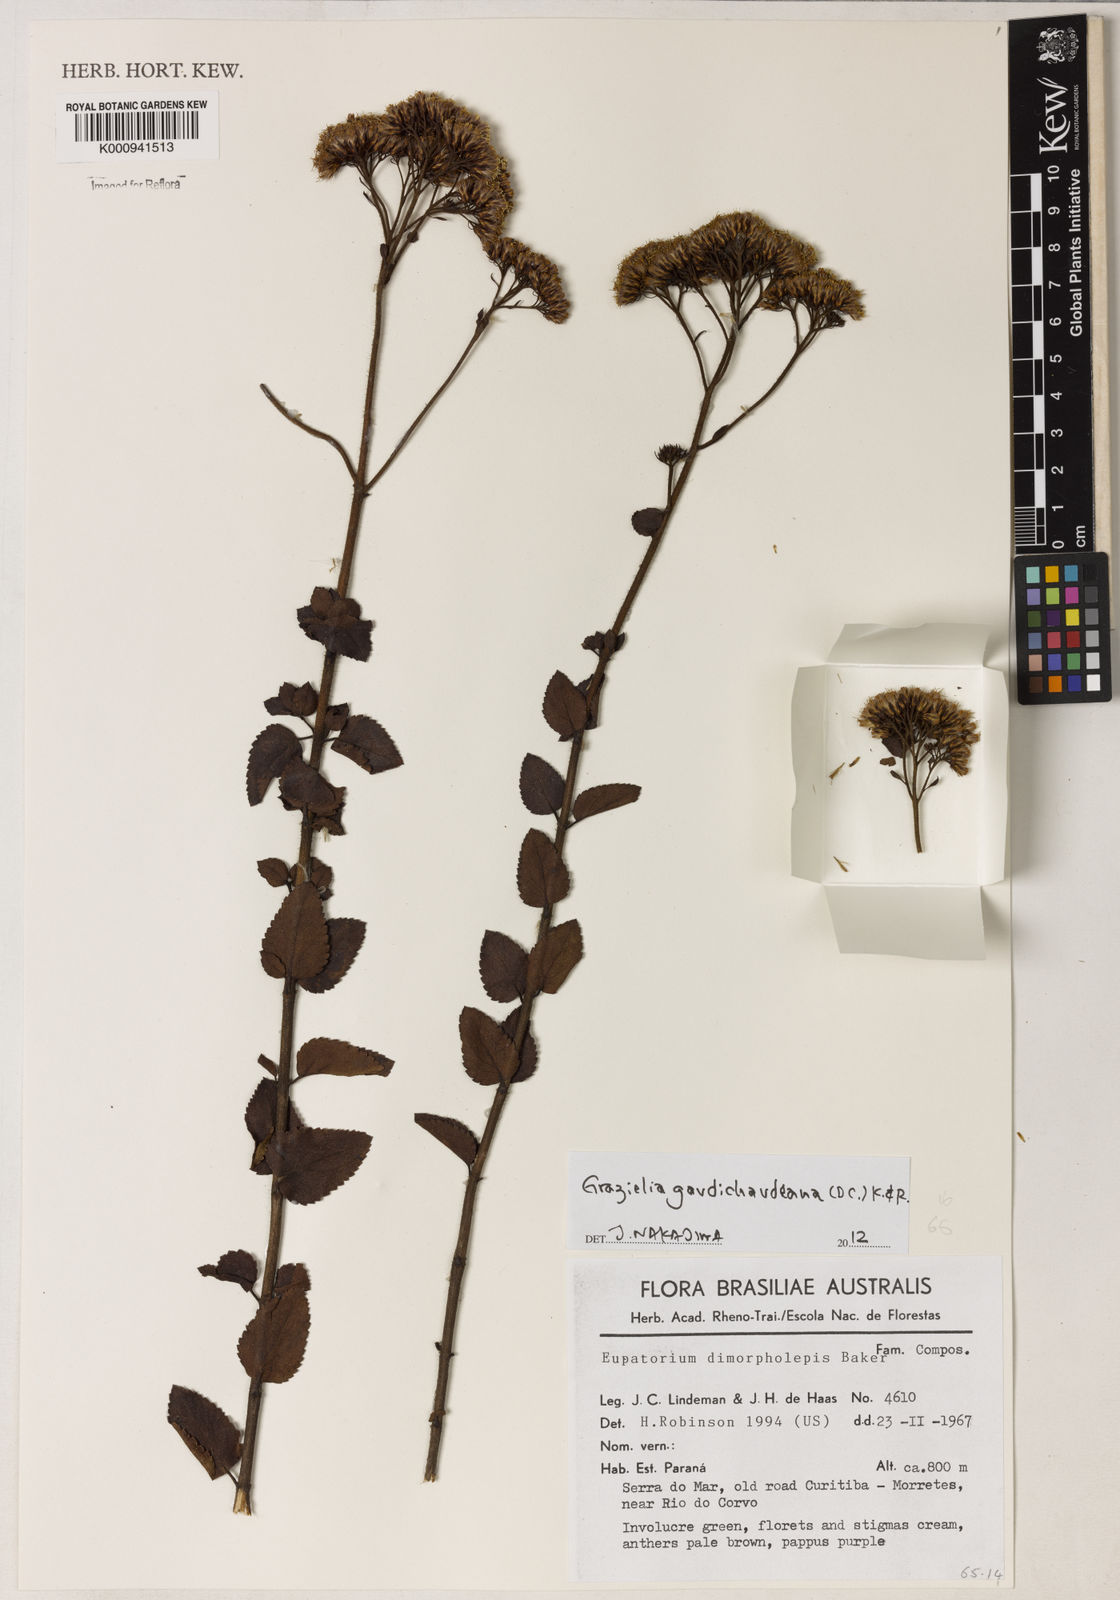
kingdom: Plantae
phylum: Tracheophyta
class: Magnoliopsida
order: Asterales
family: Asteraceae
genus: Grazielia
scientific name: Grazielia
